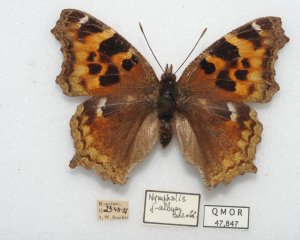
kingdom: Animalia
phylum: Arthropoda
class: Insecta
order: Lepidoptera
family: Nymphalidae
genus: Polygonia
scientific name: Polygonia vaualbum
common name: Compton Tortoiseshell
